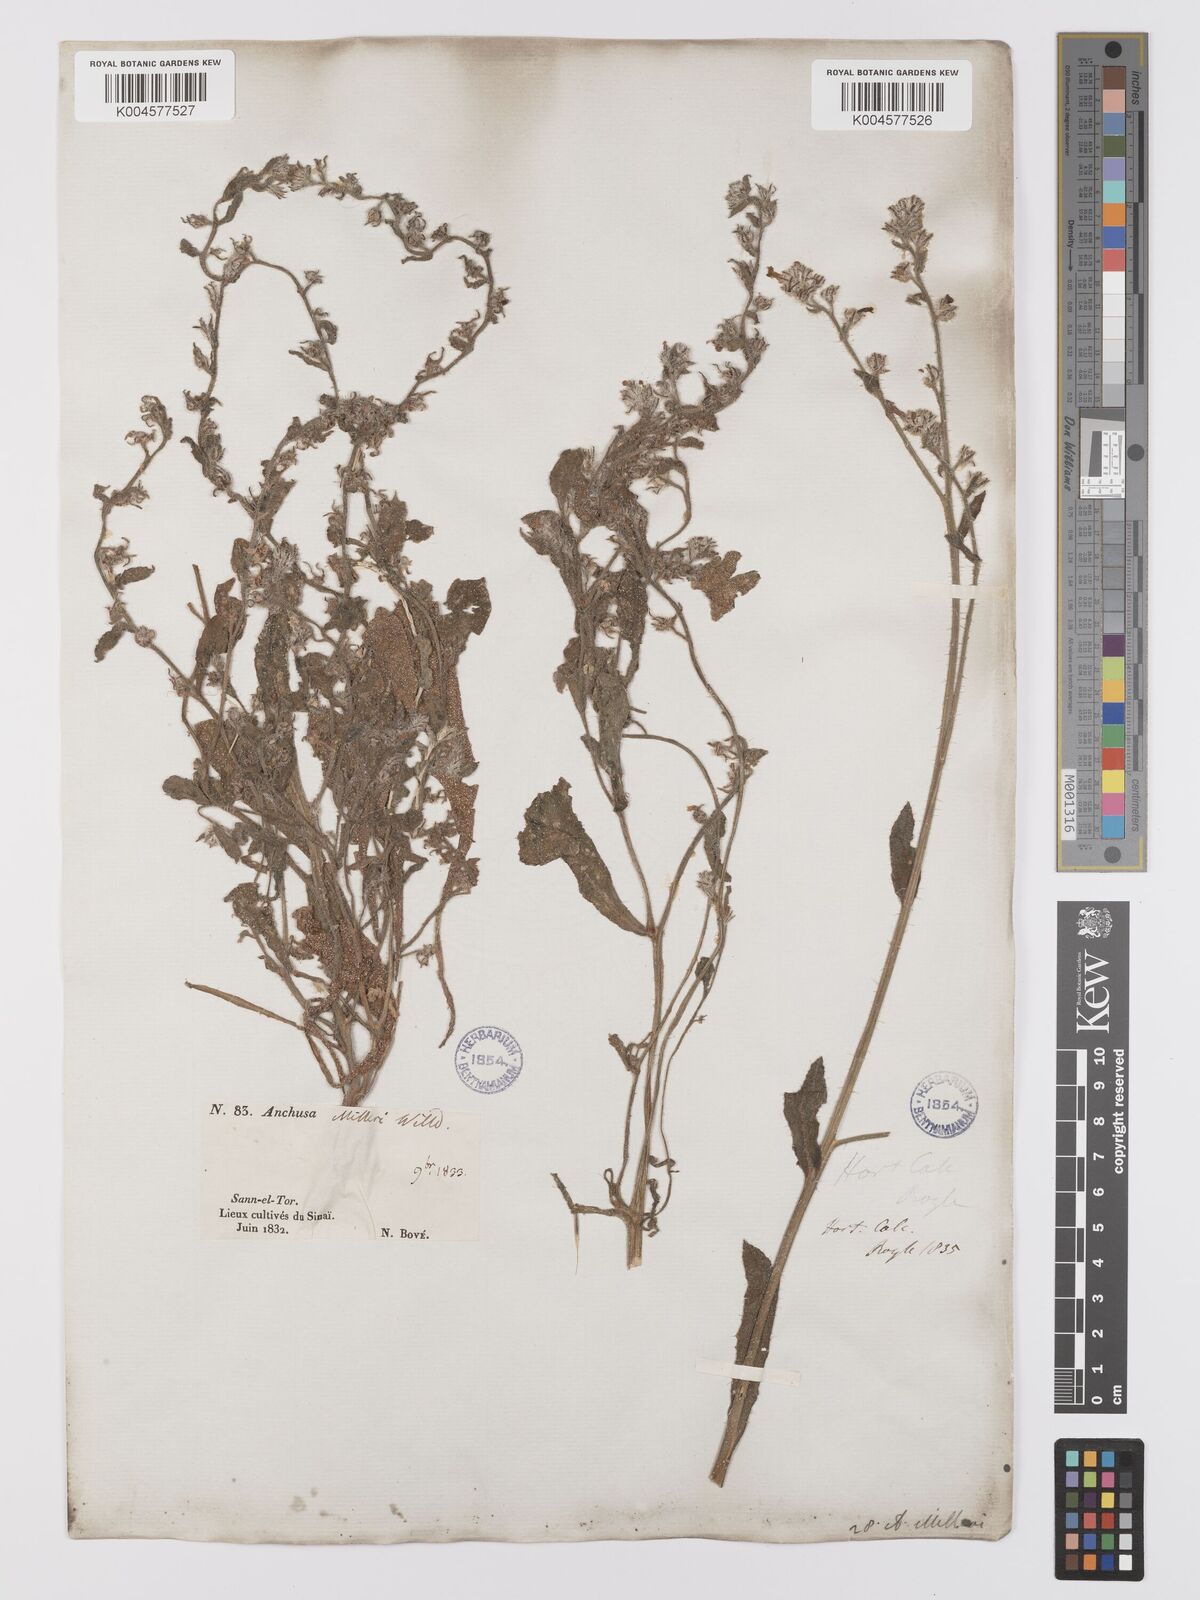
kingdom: Plantae
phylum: Tracheophyta
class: Magnoliopsida
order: Boraginales
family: Boraginaceae
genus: Anchusa
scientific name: Anchusa milleri
